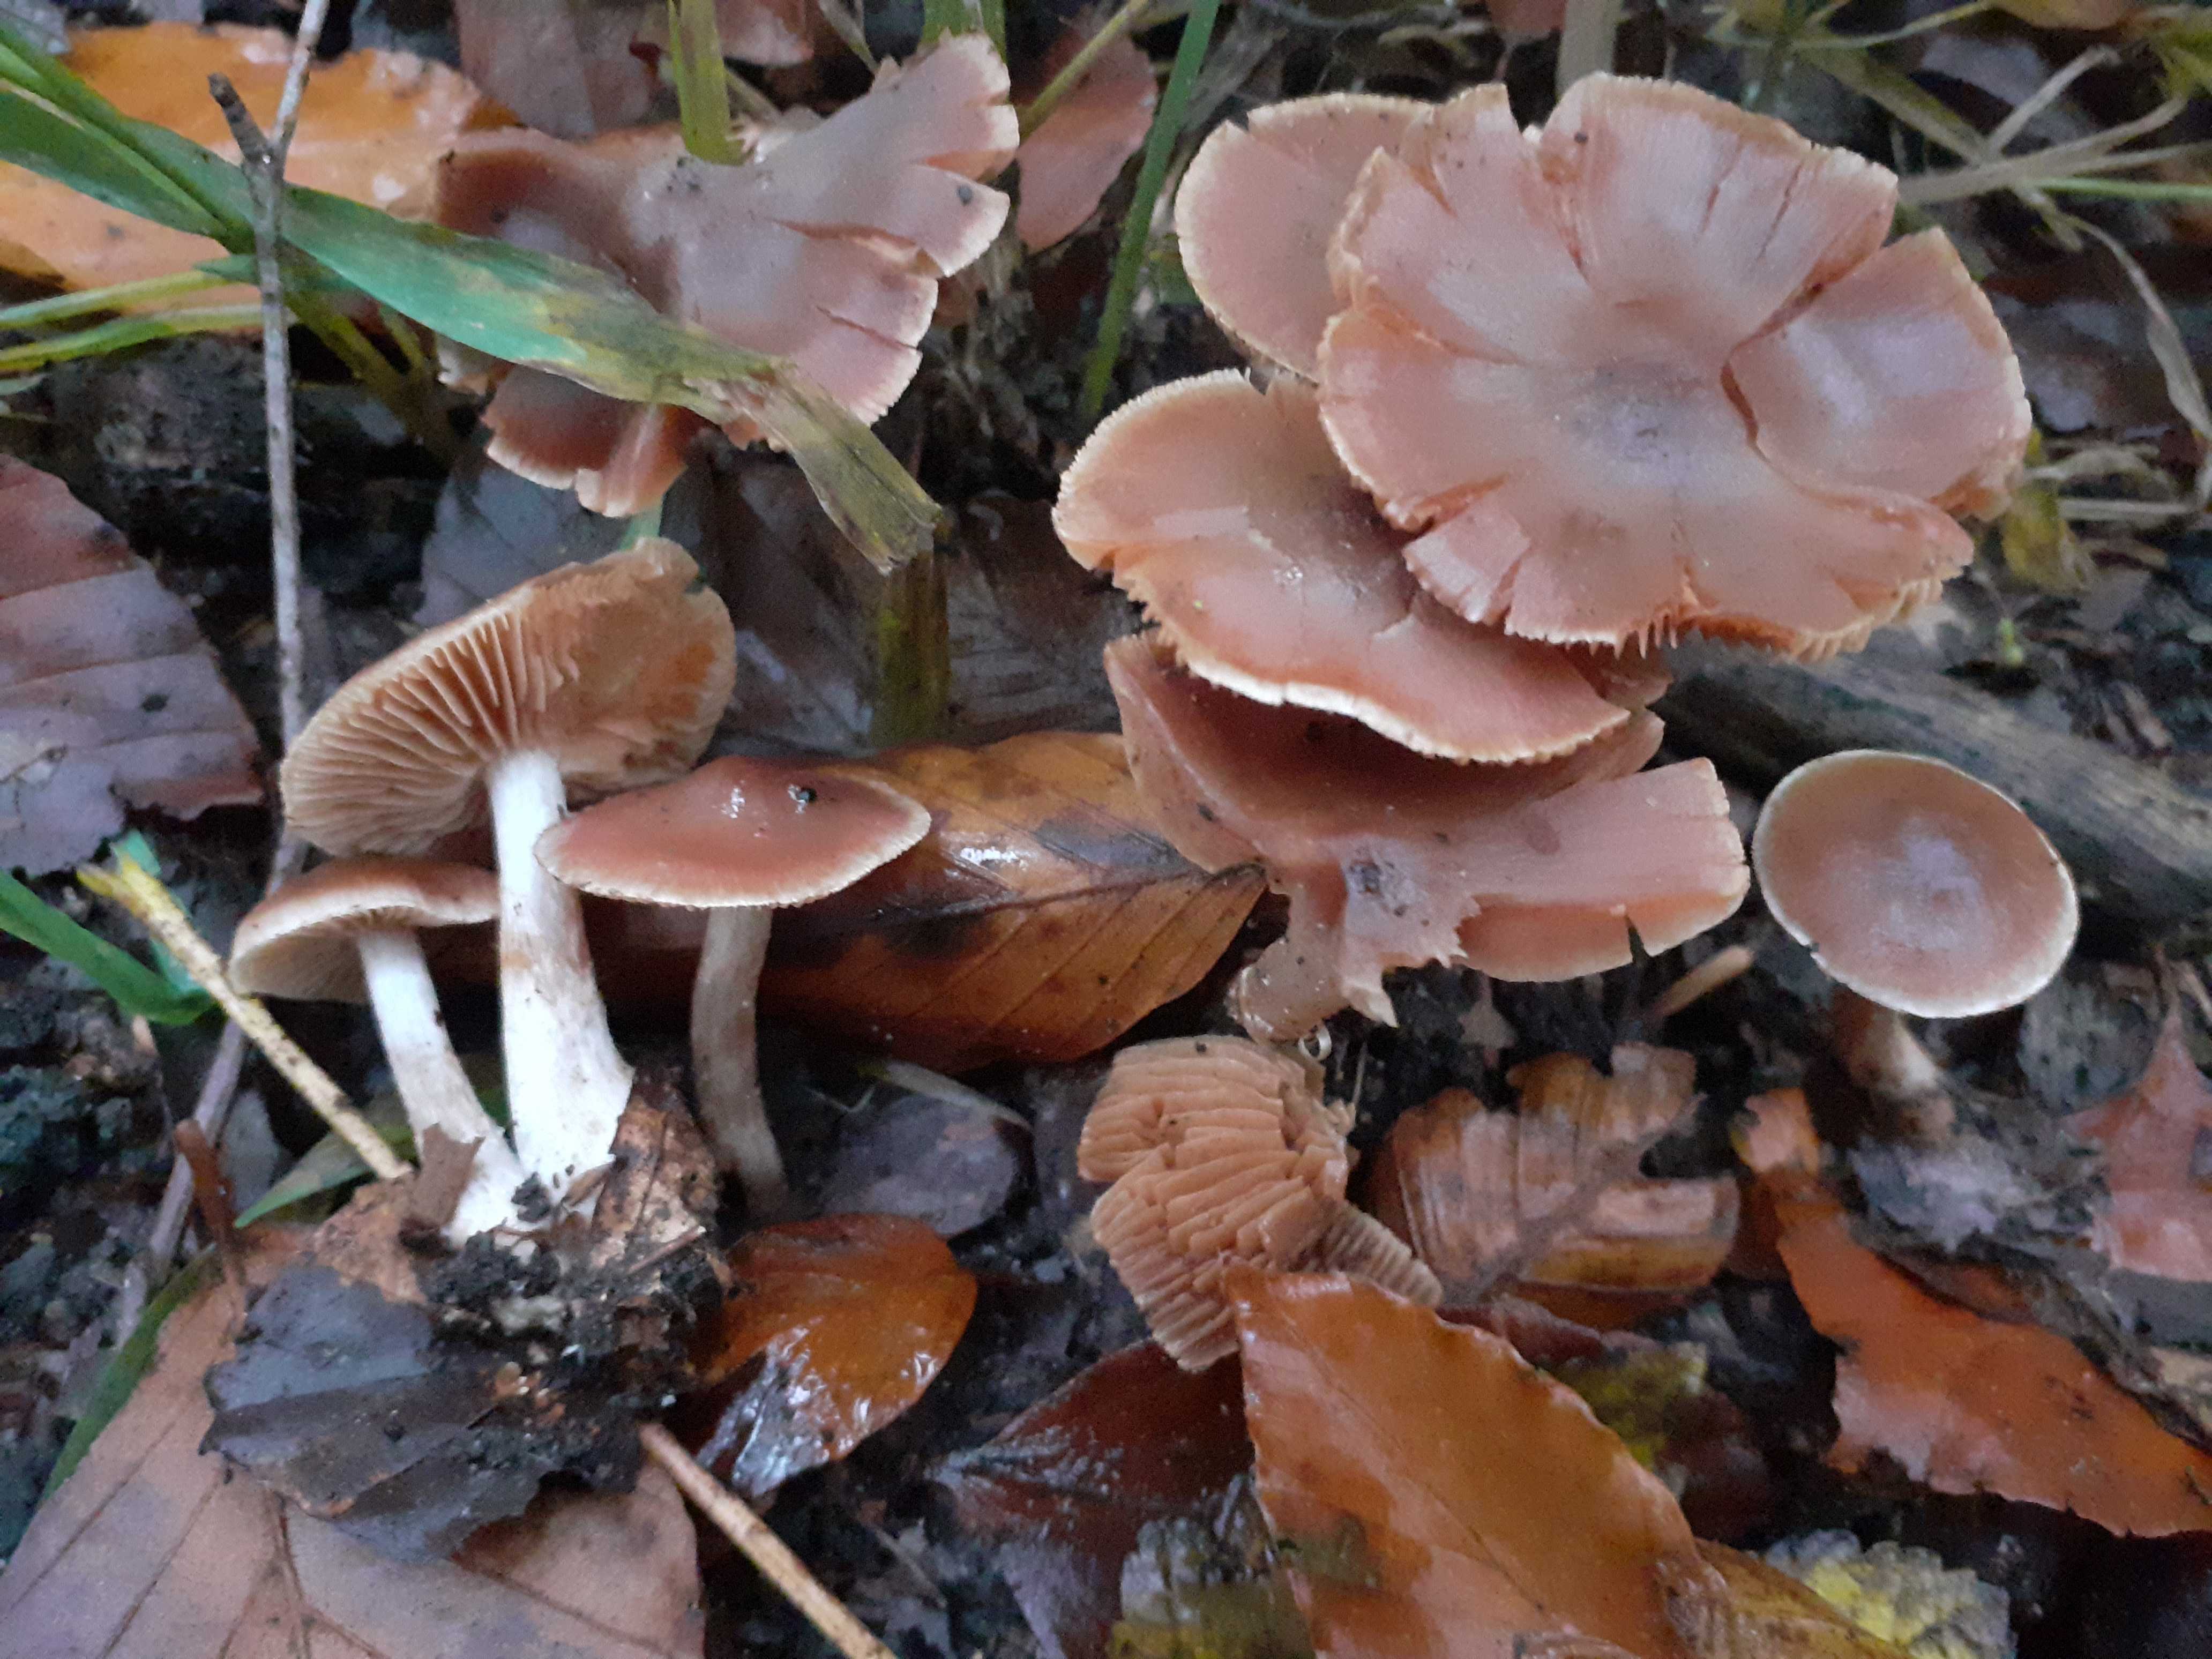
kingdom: Fungi
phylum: Basidiomycota
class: Agaricomycetes
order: Agaricales
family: Cortinariaceae
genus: Cortinarius
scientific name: Cortinarius leiocastaneus
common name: rosabrun slørhat
